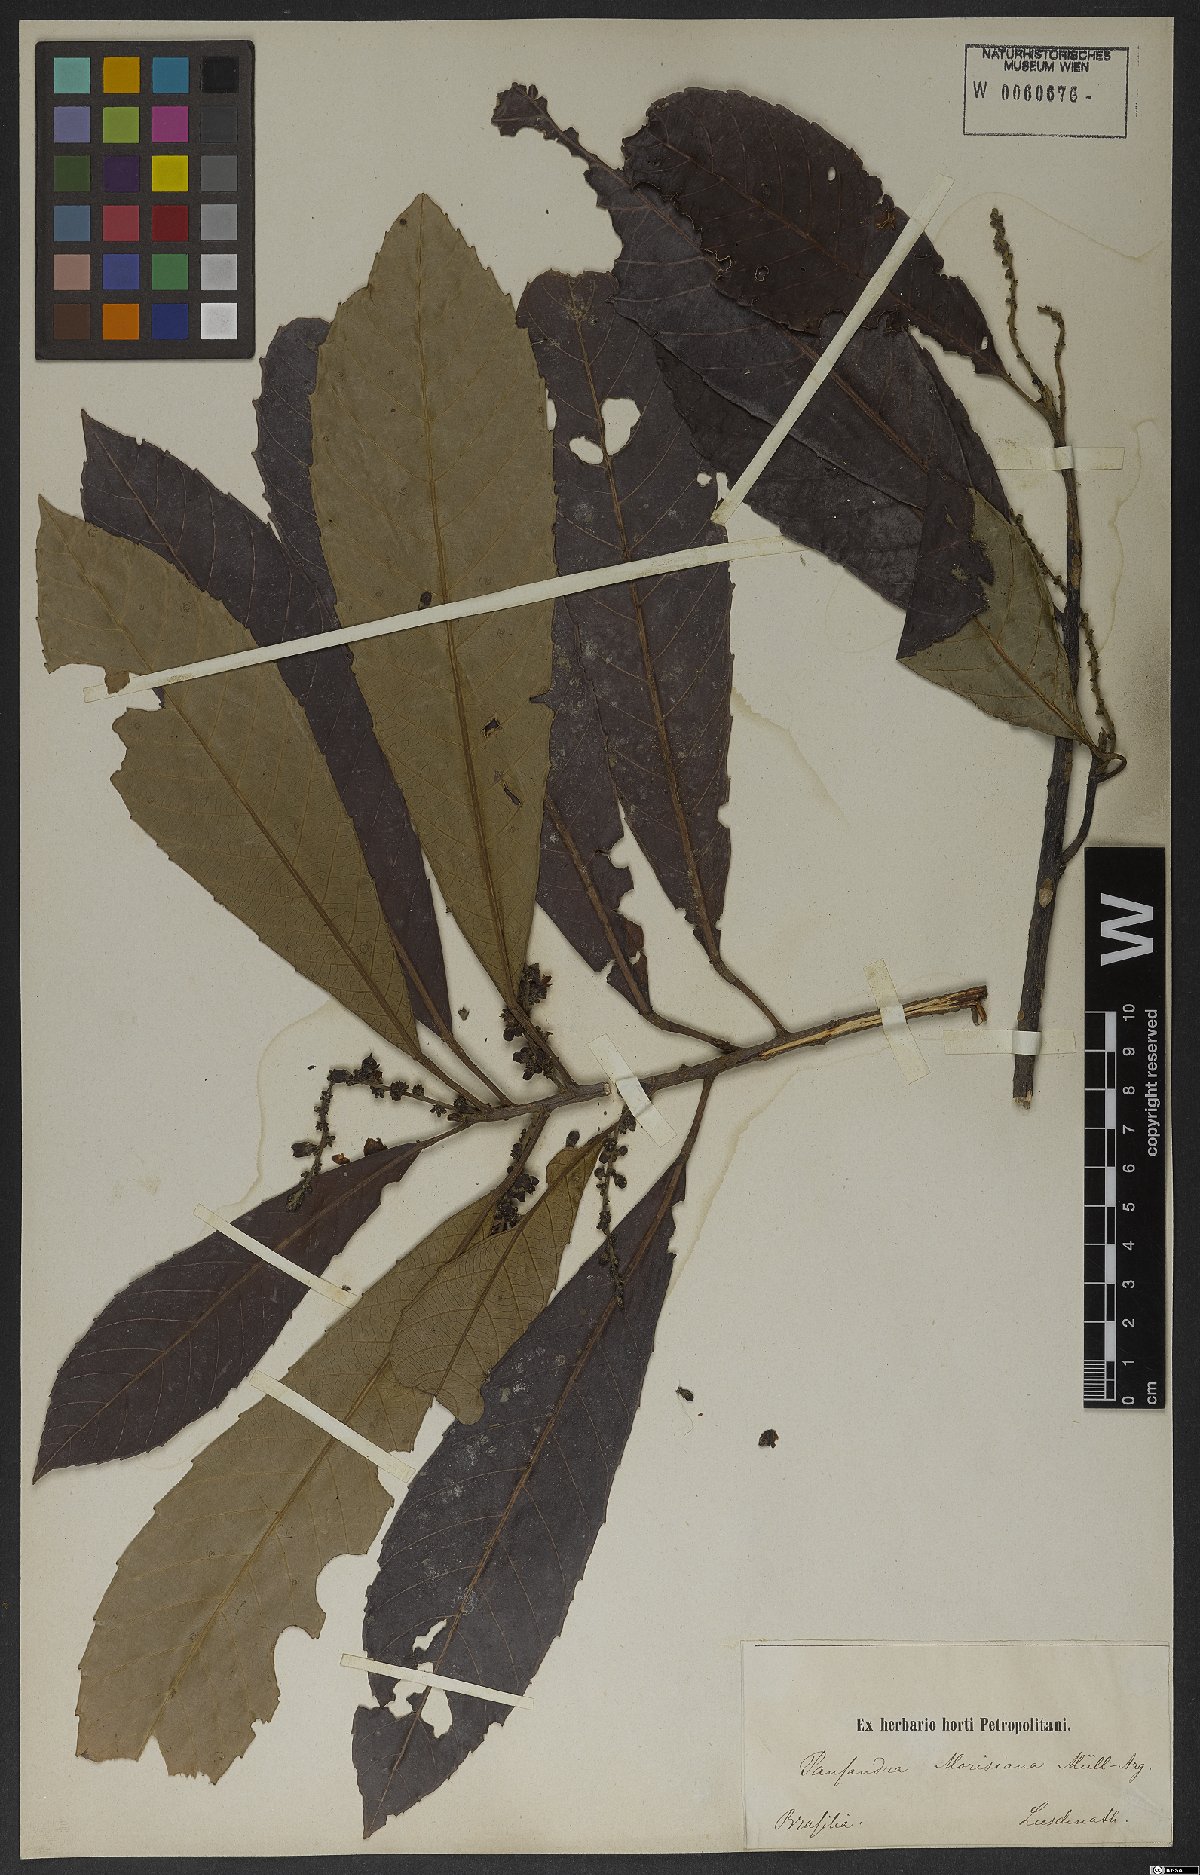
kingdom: Plantae
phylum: Tracheophyta
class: Magnoliopsida
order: Malpighiales
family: Euphorbiaceae
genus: Pausandra
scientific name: Pausandra morisiana
